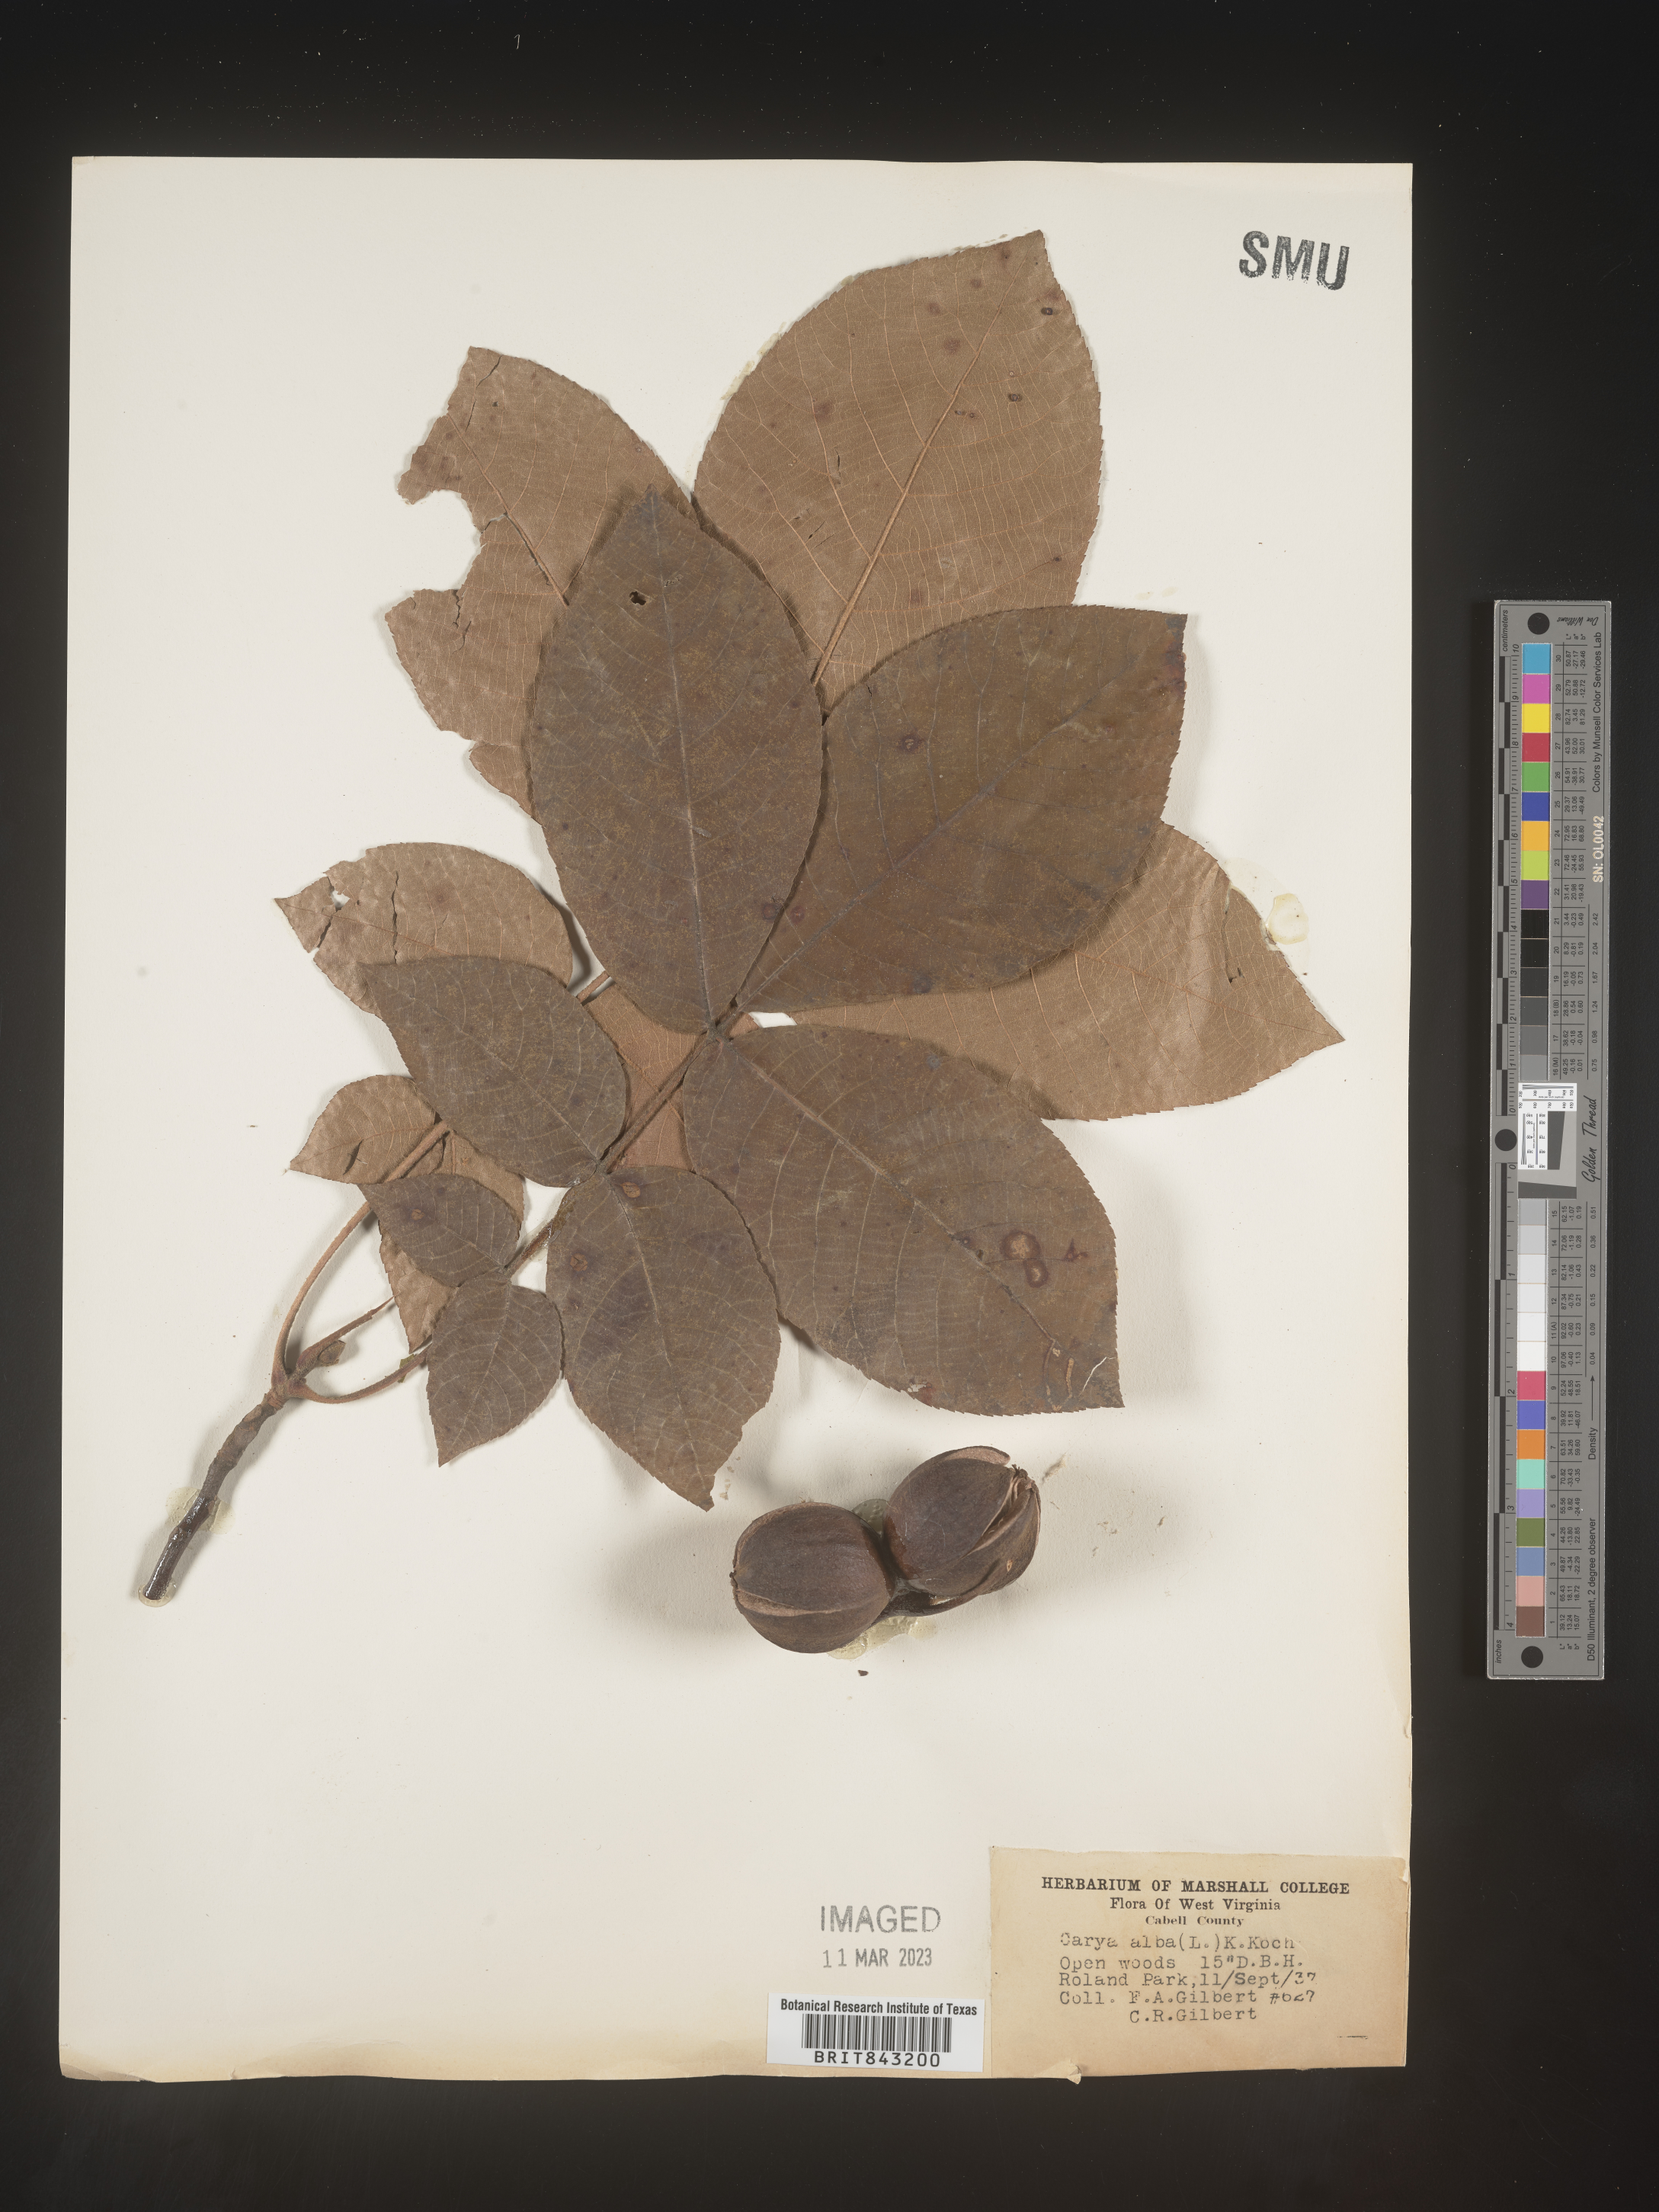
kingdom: Plantae
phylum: Tracheophyta
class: Magnoliopsida
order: Fagales
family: Juglandaceae
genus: Carya
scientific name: Carya alba
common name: Mockernut hickory
